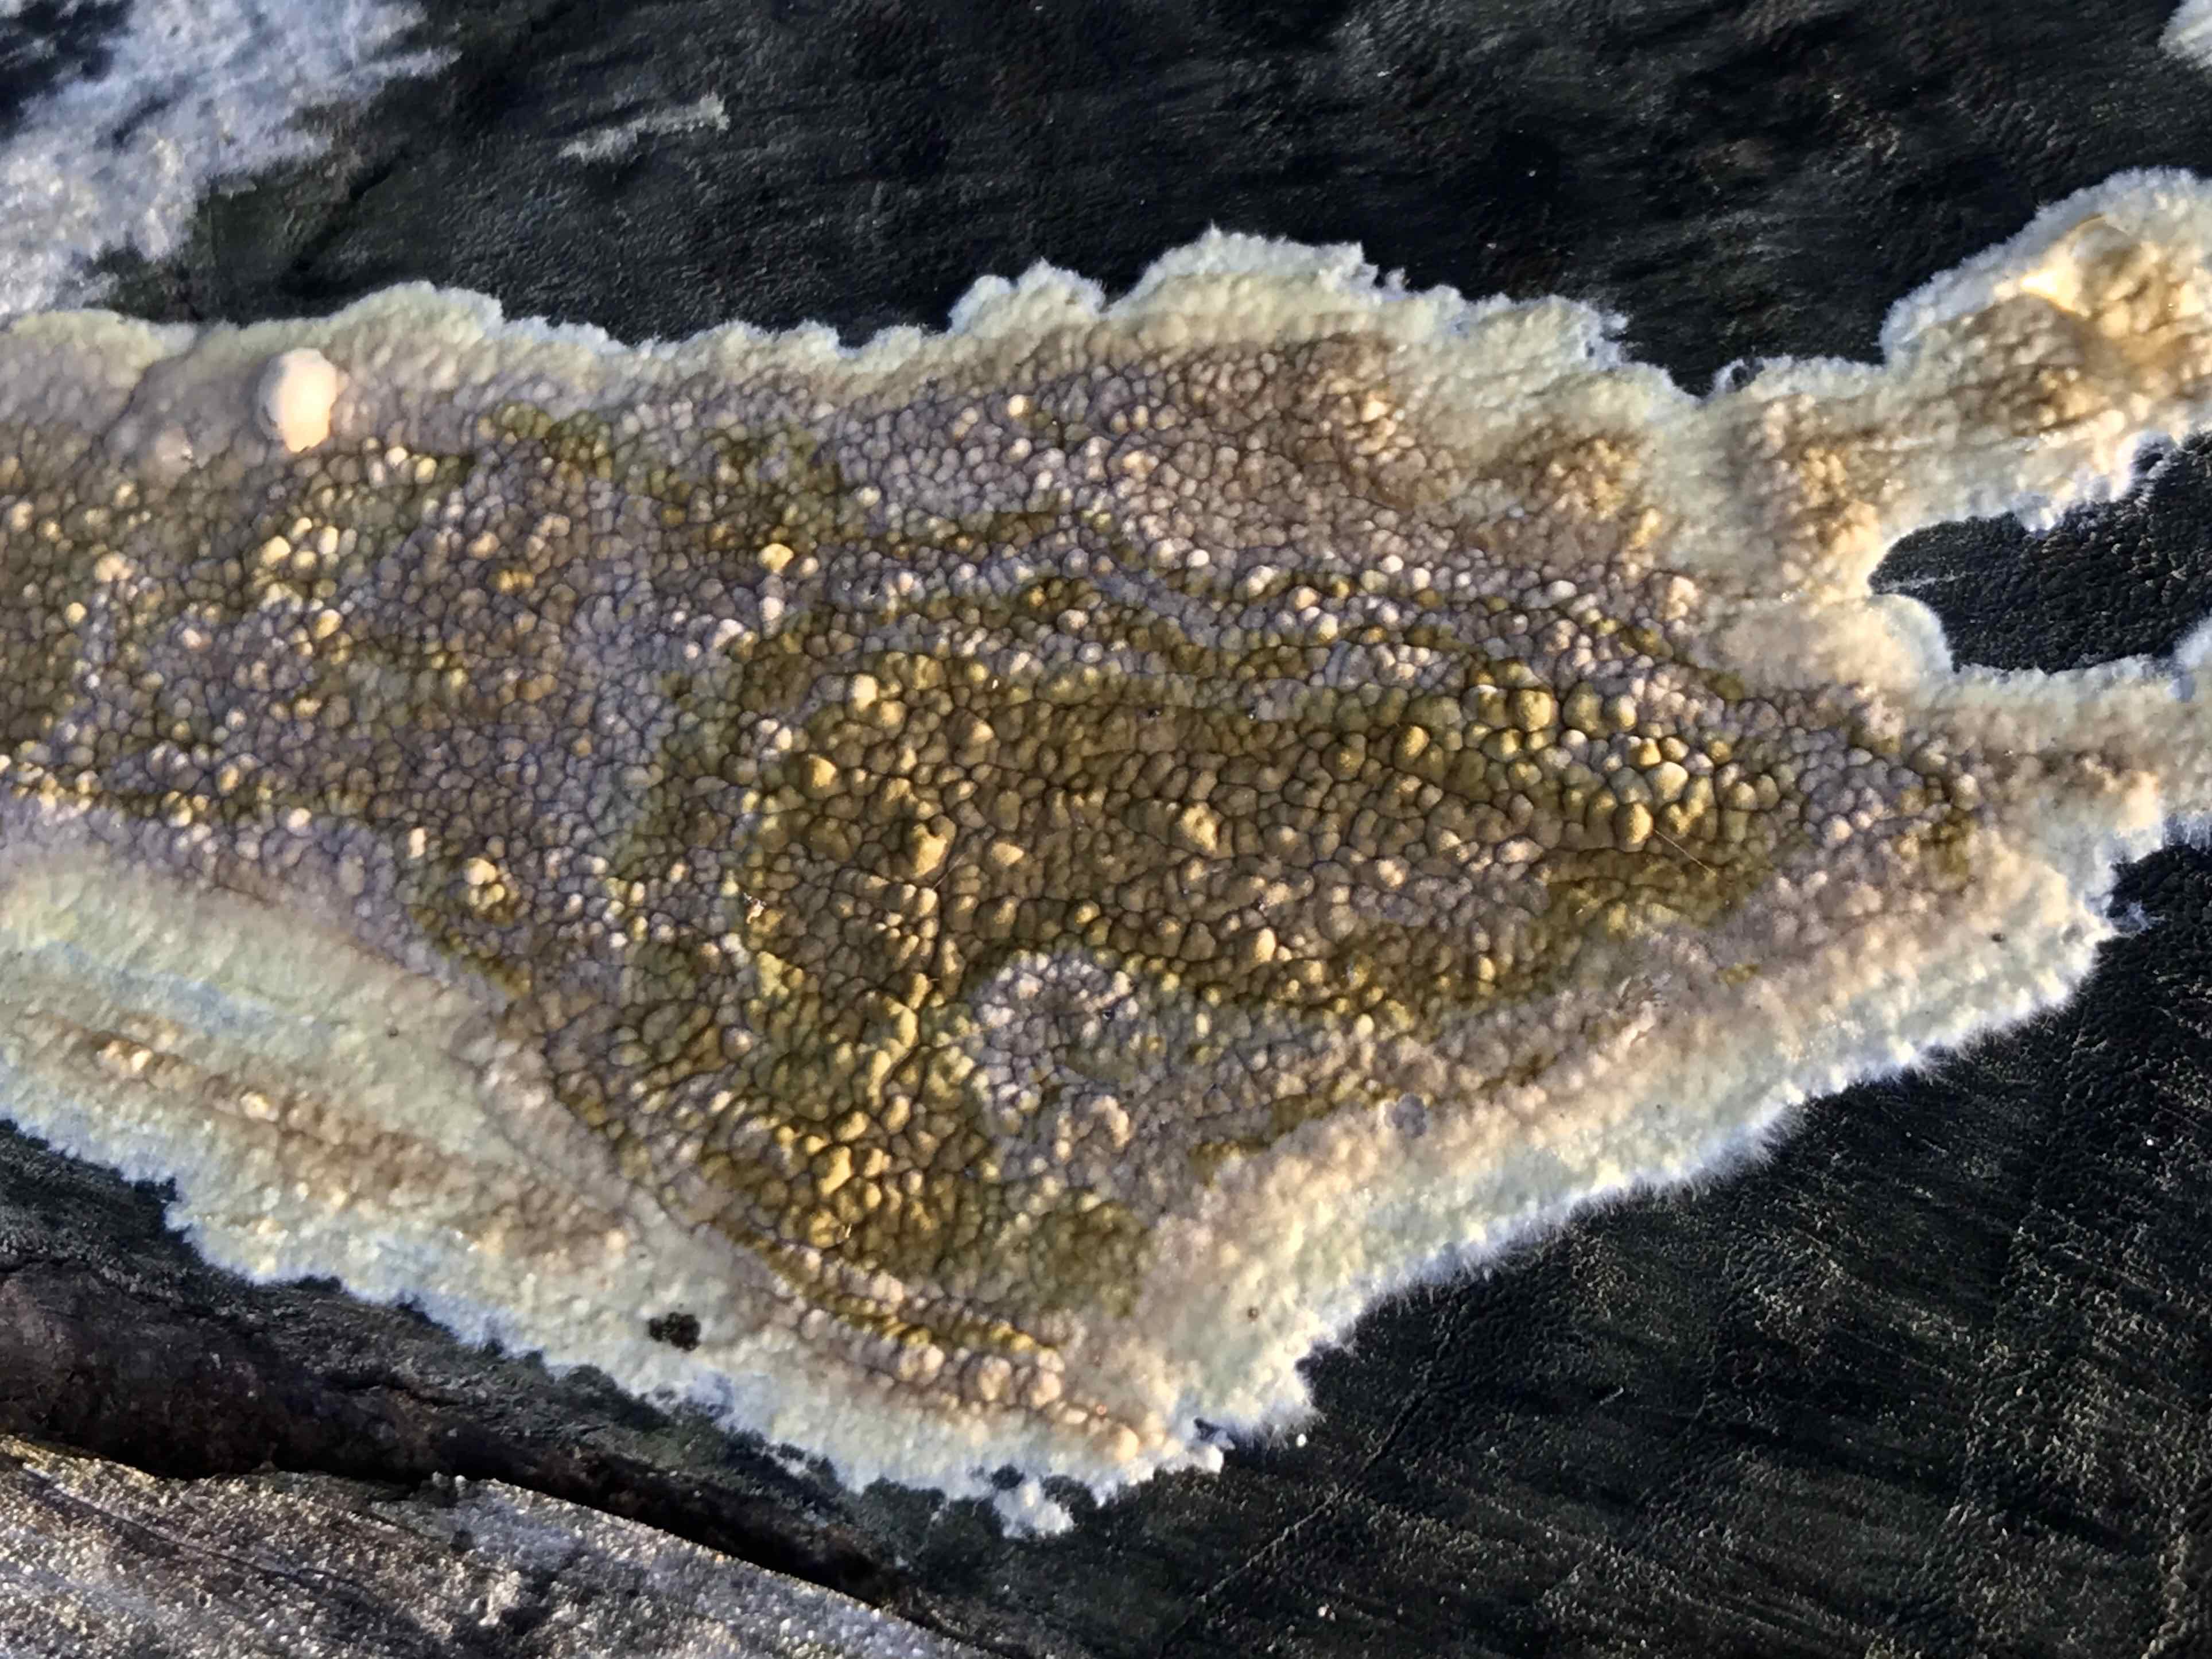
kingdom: Fungi
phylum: Basidiomycota
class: Agaricomycetes
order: Boletales
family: Coniophoraceae
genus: Coniophora
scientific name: Coniophora puteana
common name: gul tømmersvamp
